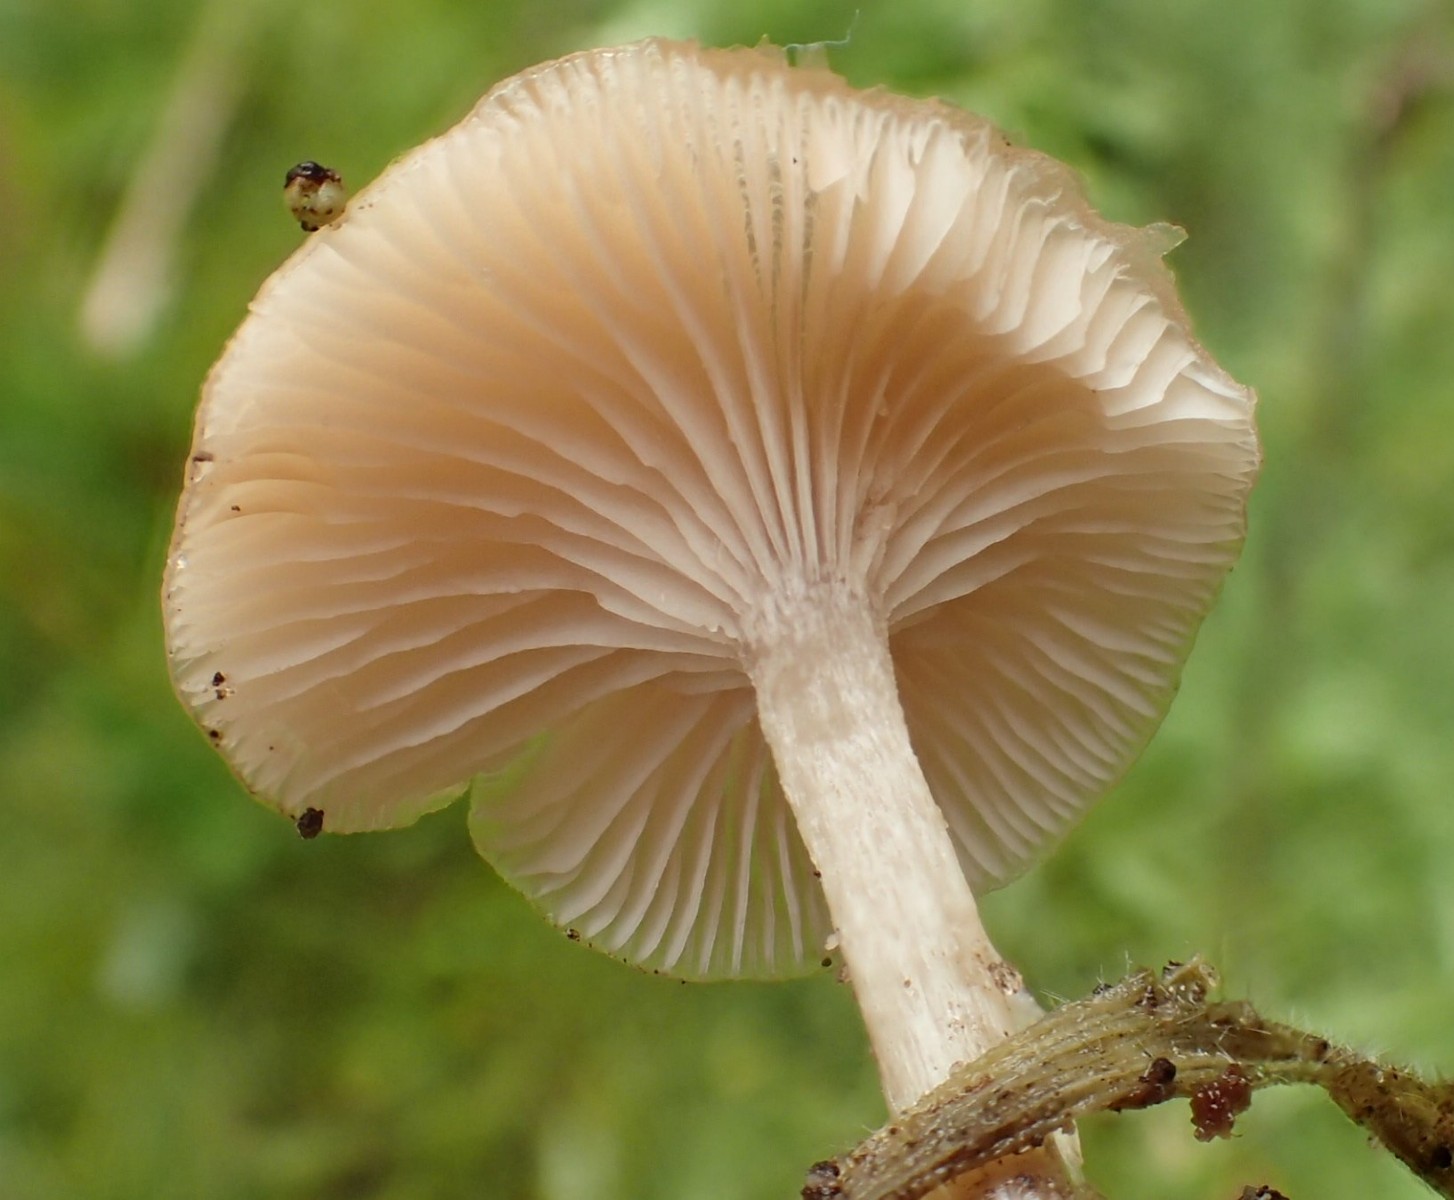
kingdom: Fungi
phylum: Basidiomycota
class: Agaricomycetes
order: Agaricales
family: Tricholomataceae
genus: Clitocybe
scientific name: Clitocybe fragrans
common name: vellugtende tragthat
